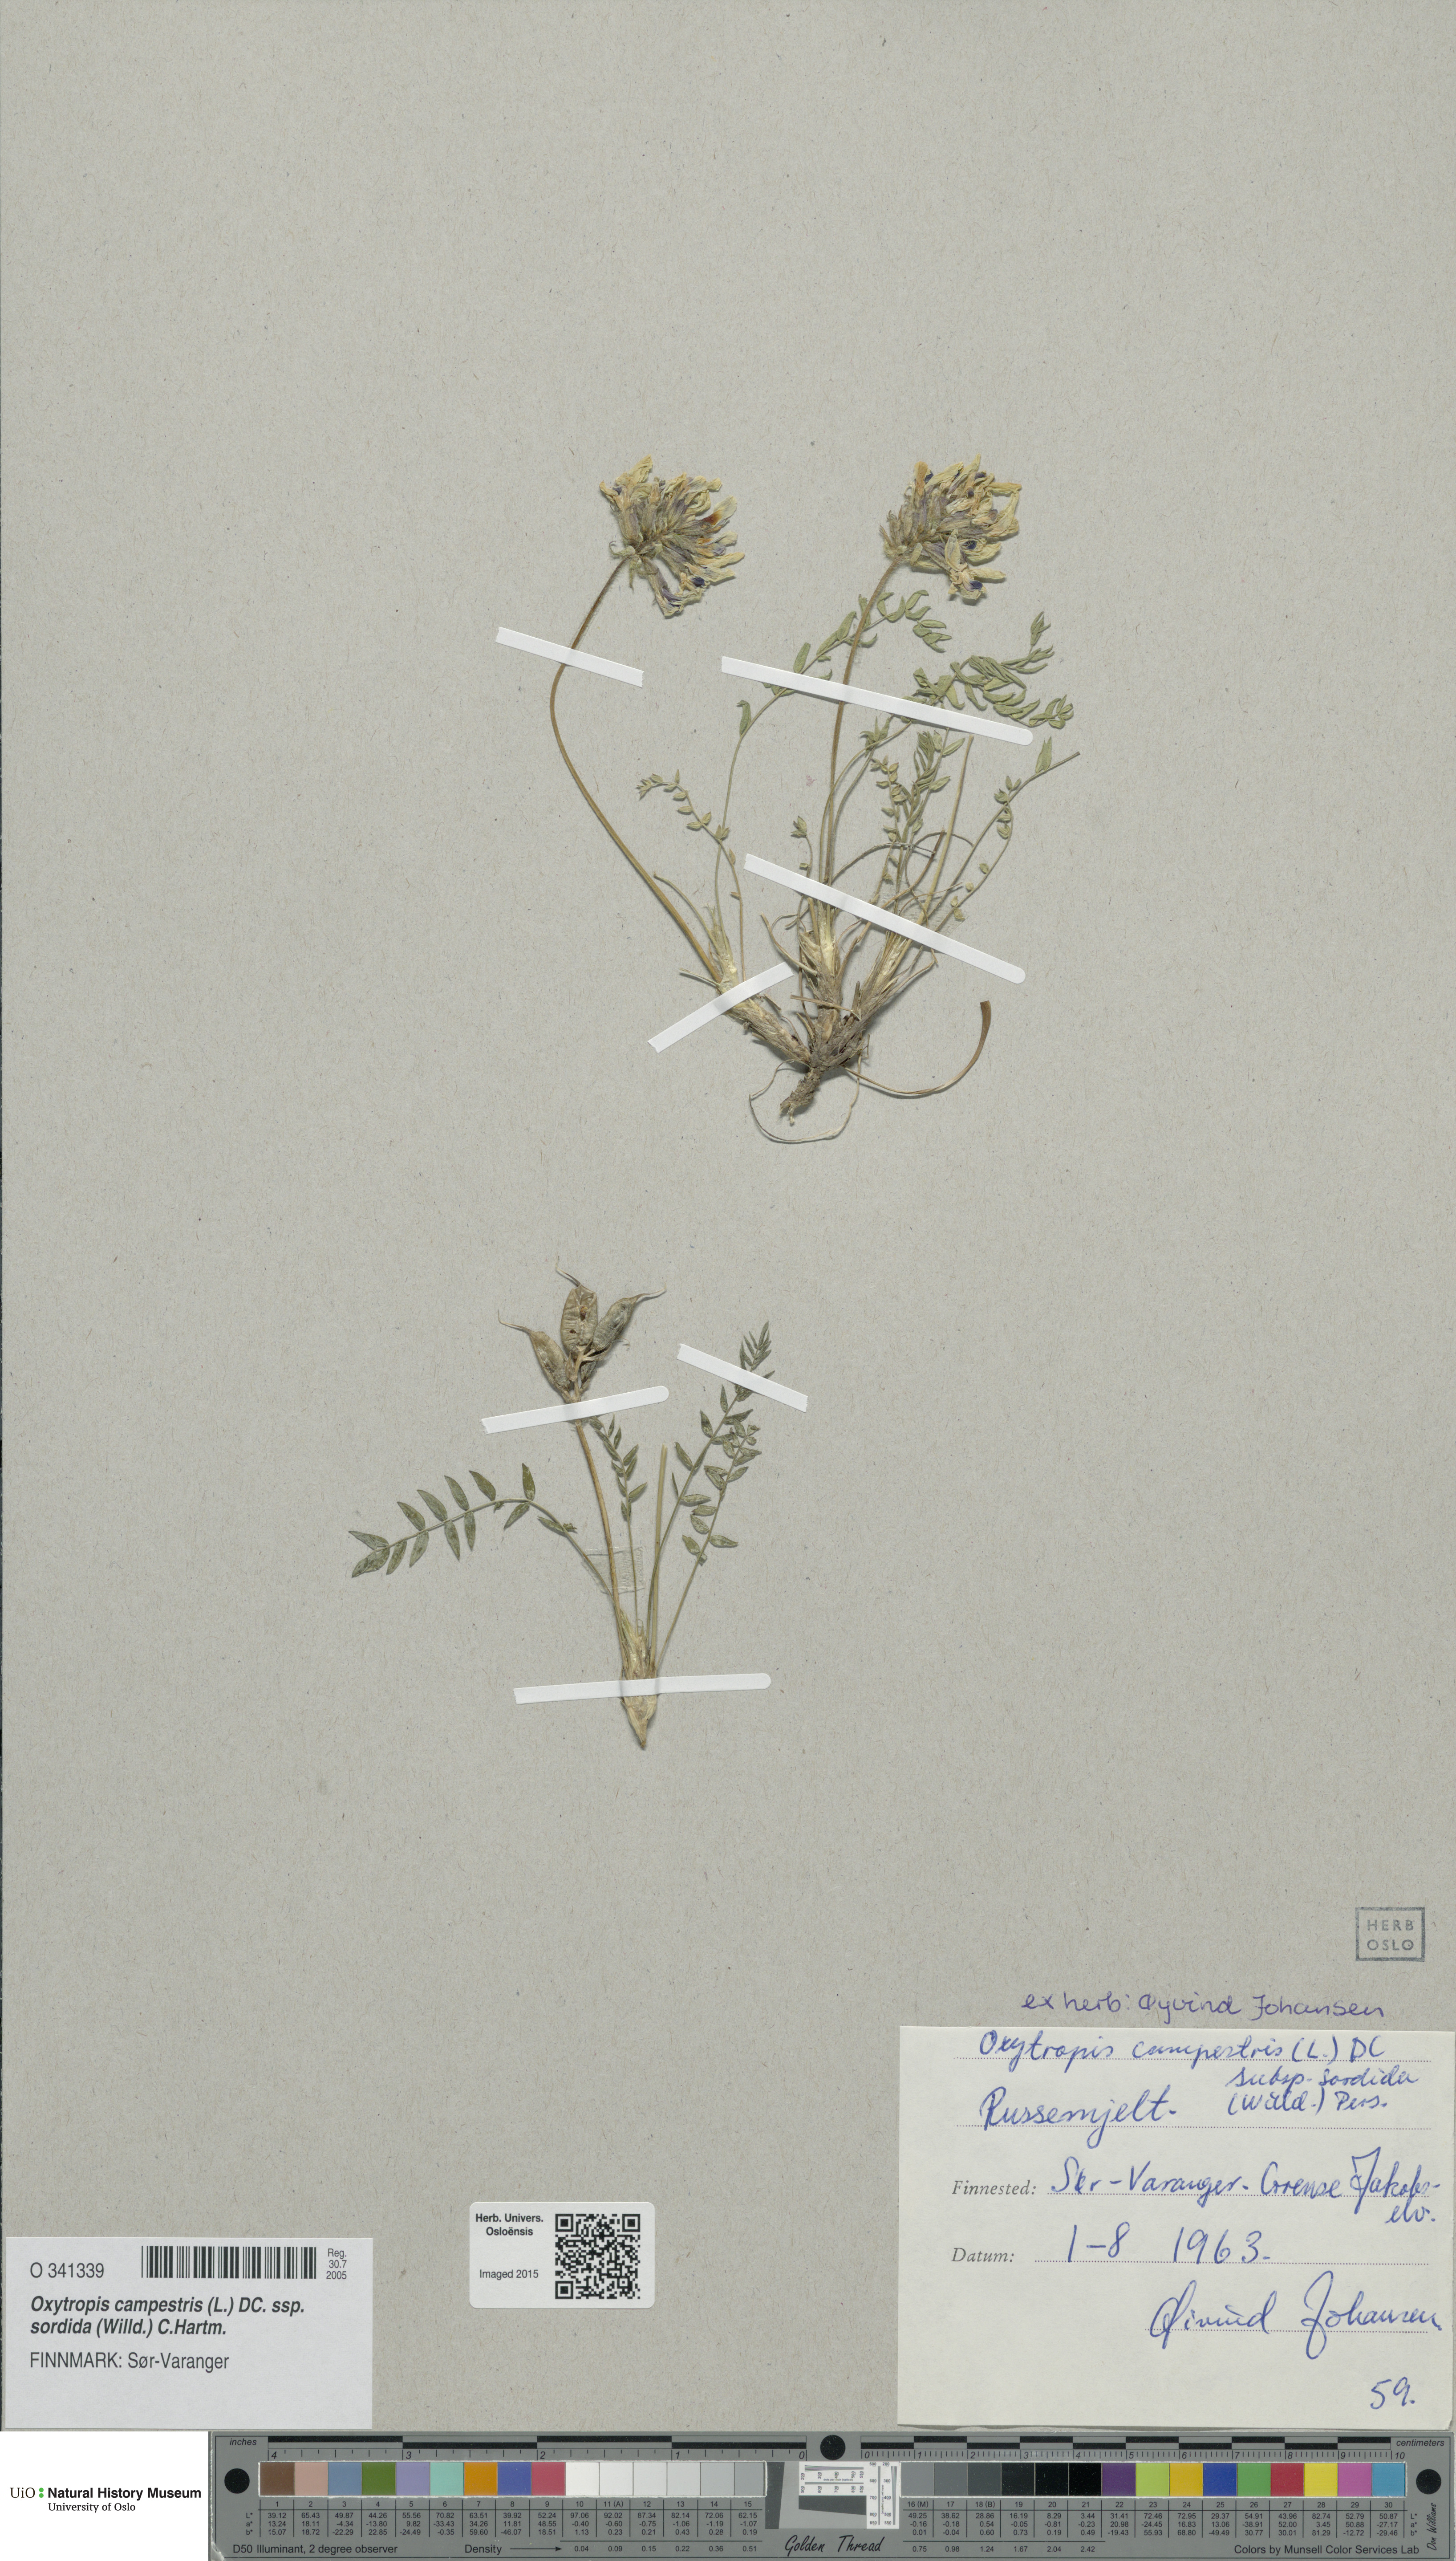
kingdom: Plantae
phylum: Tracheophyta
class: Magnoliopsida
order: Fabales
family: Fabaceae
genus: Oxytropis
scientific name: Oxytropis sordida
